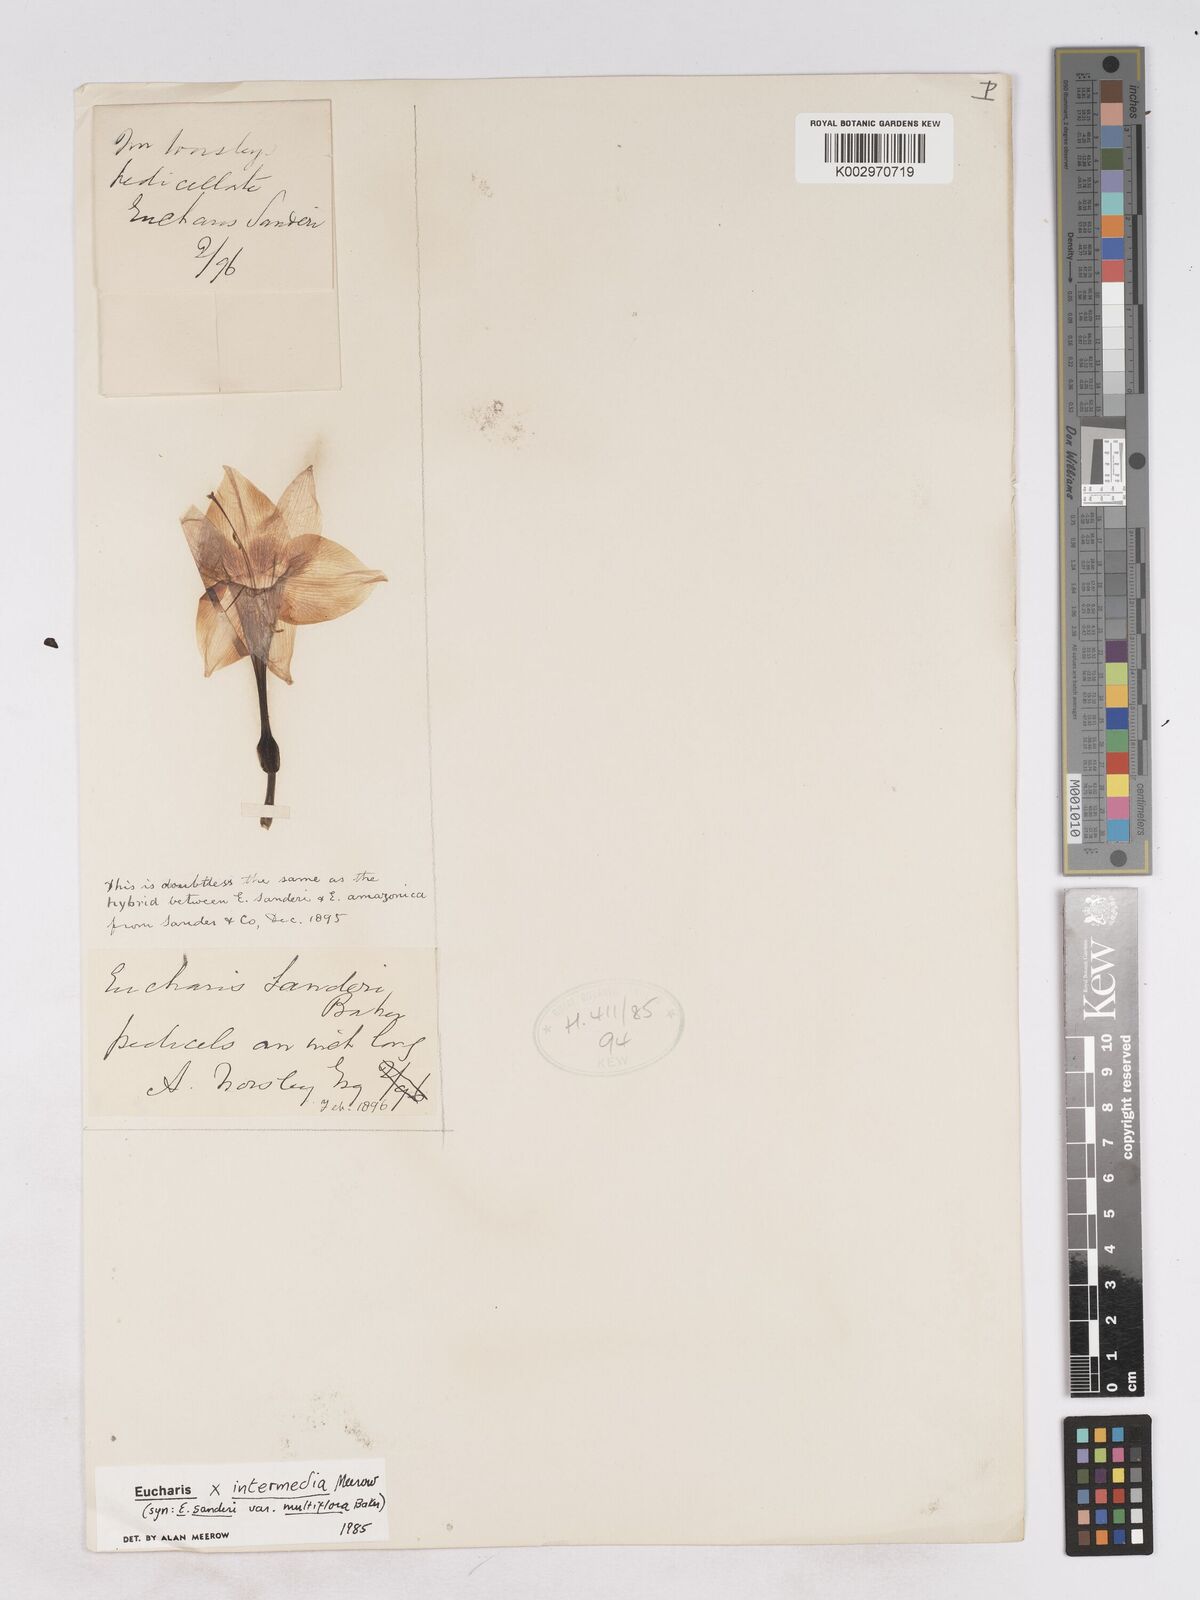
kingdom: Plantae
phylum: Tracheophyta
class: Liliopsida
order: Asparagales
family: Amaryllidaceae
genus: Calicharis
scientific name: Calicharis butcheri
